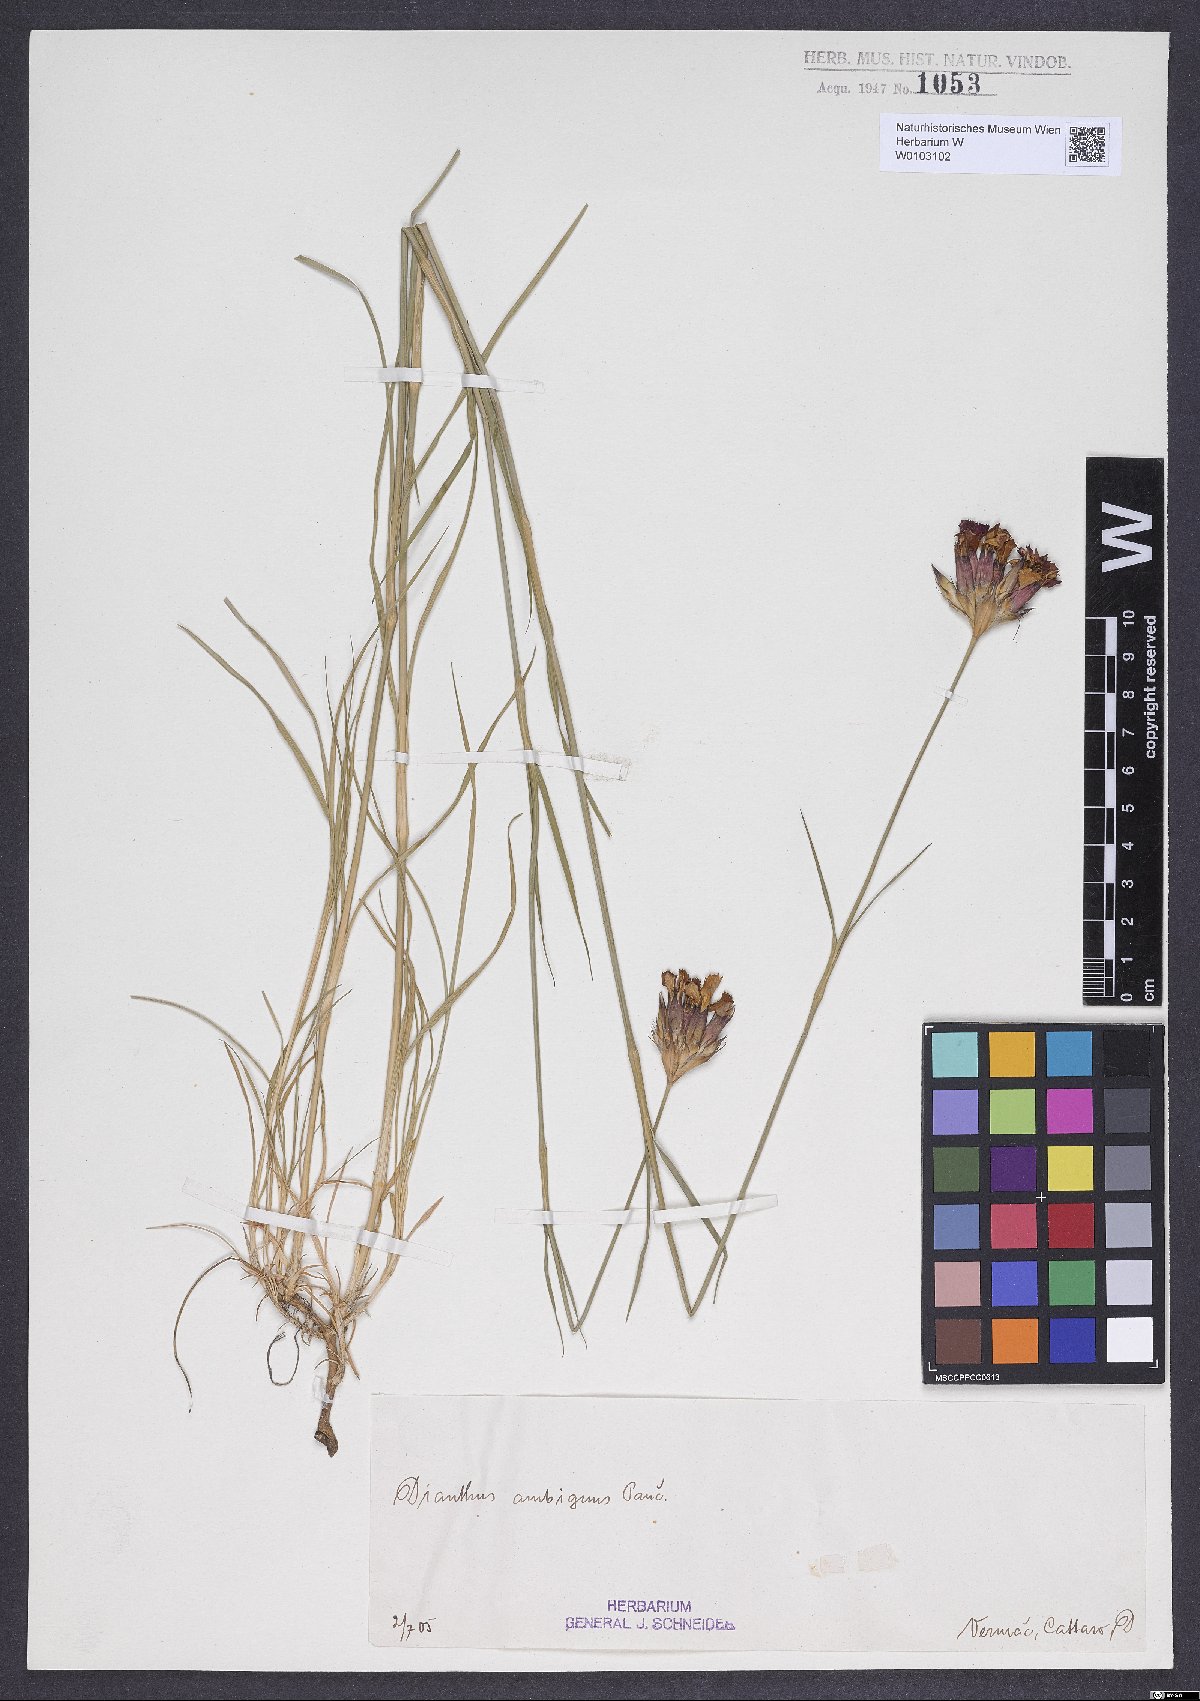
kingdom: Plantae
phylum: Tracheophyta
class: Magnoliopsida
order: Caryophyllales
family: Caryophyllaceae
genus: Dianthus
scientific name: Dianthus cruentus
